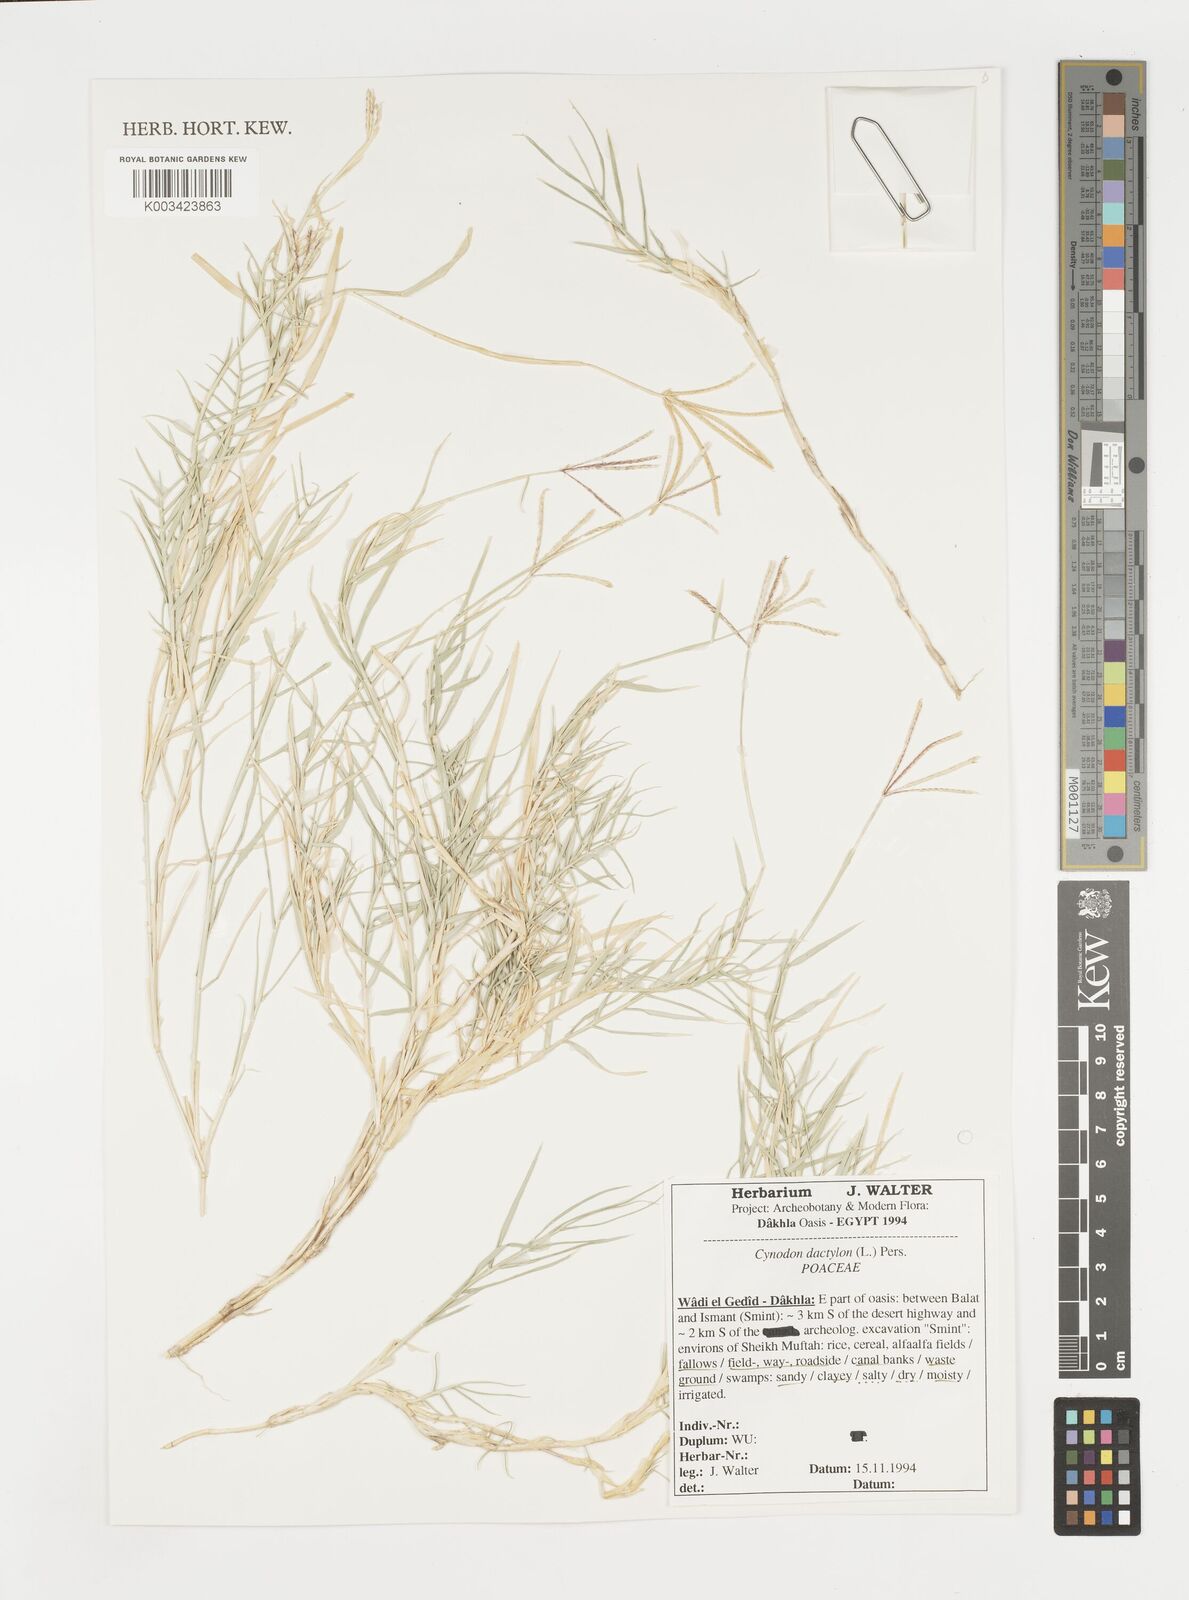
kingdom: Plantae
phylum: Tracheophyta
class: Liliopsida
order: Poales
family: Poaceae
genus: Cynodon
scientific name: Cynodon dactylon
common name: Bermuda grass
